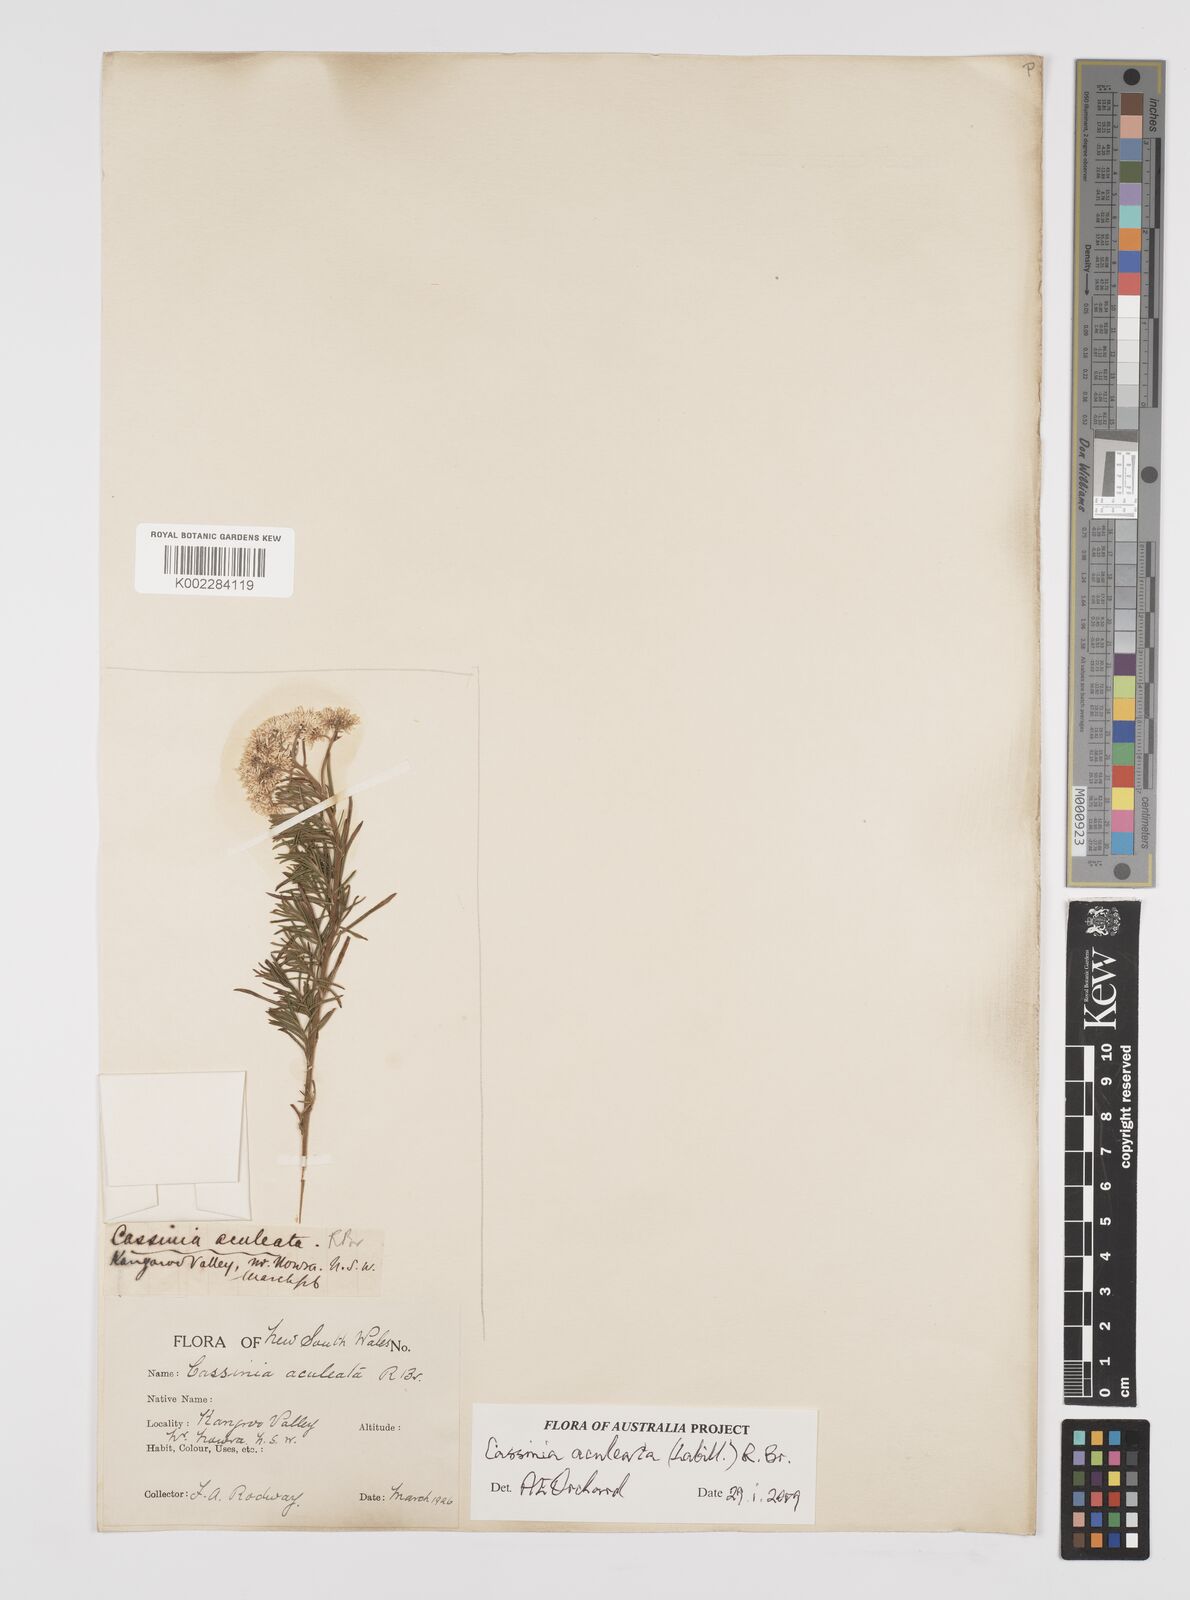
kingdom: Plantae
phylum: Tracheophyta
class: Magnoliopsida
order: Asterales
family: Asteraceae
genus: Cassinia
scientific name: Cassinia aculeata
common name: Australian tauhinu
